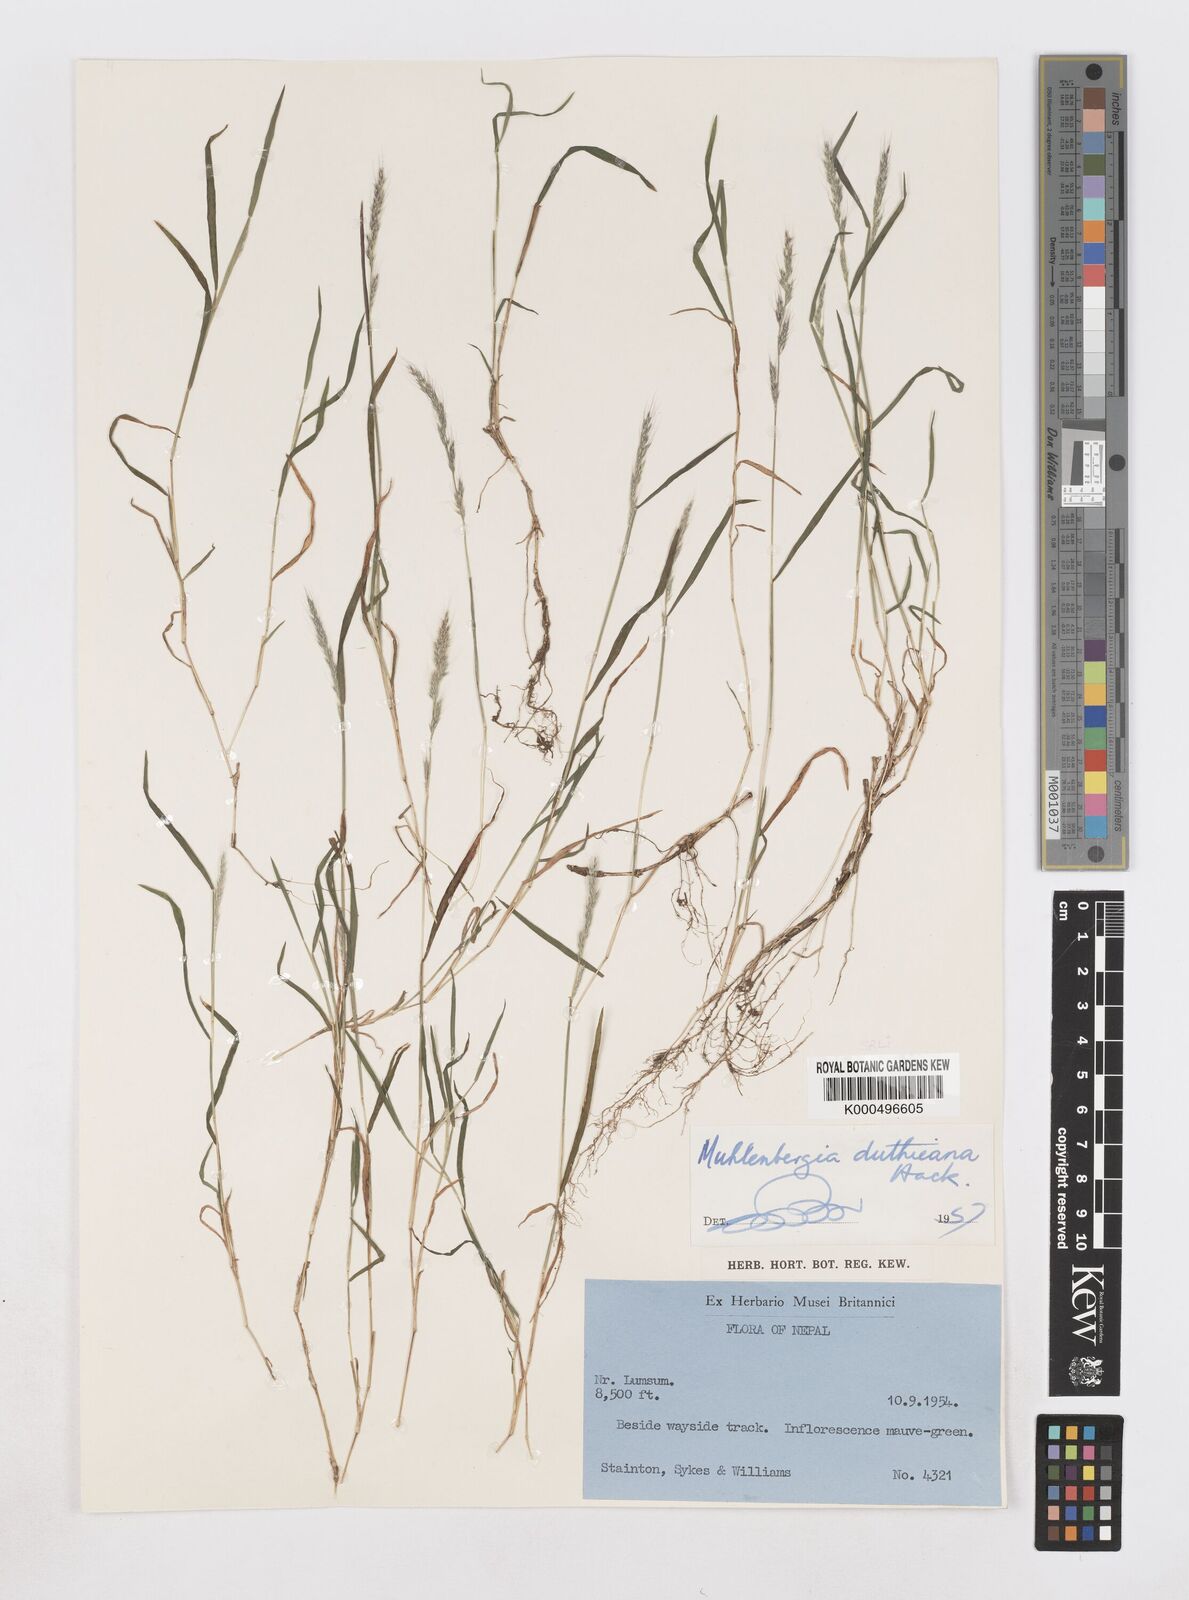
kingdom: Plantae
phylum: Tracheophyta
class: Liliopsida
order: Poales
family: Poaceae
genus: Muhlenbergia
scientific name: Muhlenbergia duthieana
